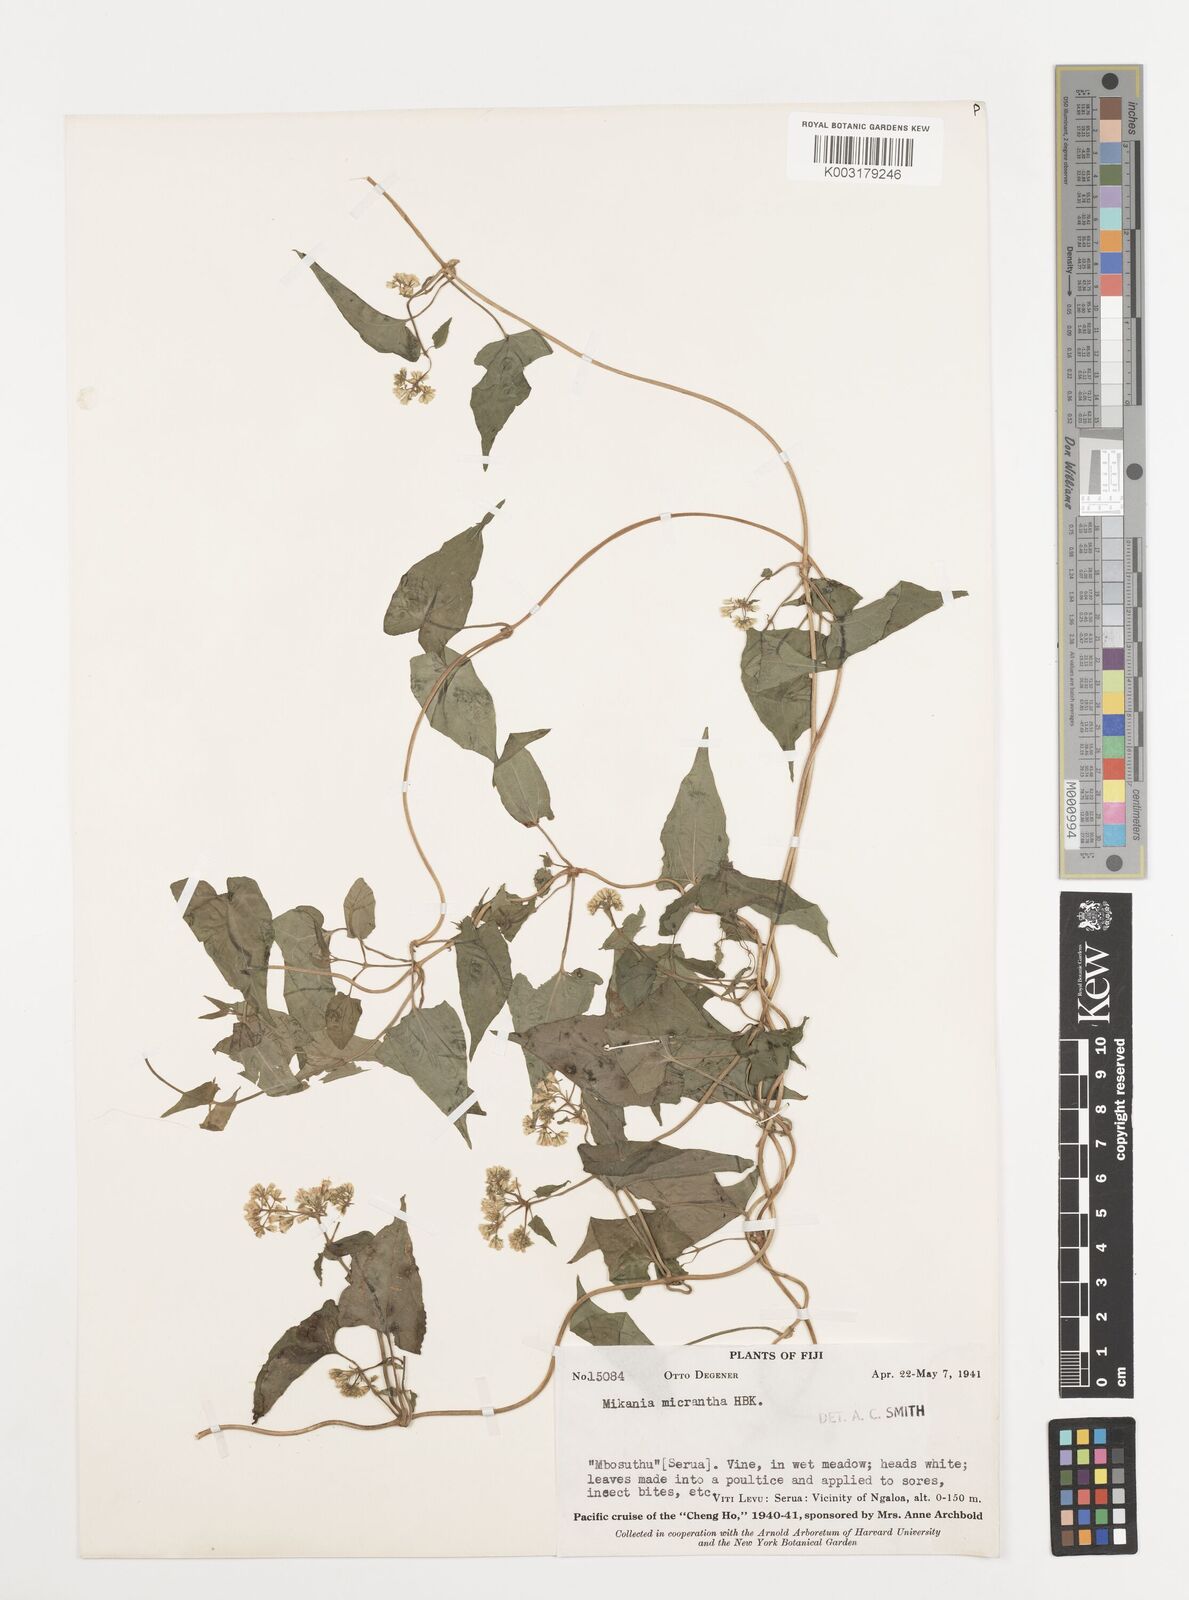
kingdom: Plantae
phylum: Tracheophyta
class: Magnoliopsida
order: Asterales
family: Asteraceae
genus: Mikania
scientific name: Mikania micrantha
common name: Mile-a-minute
